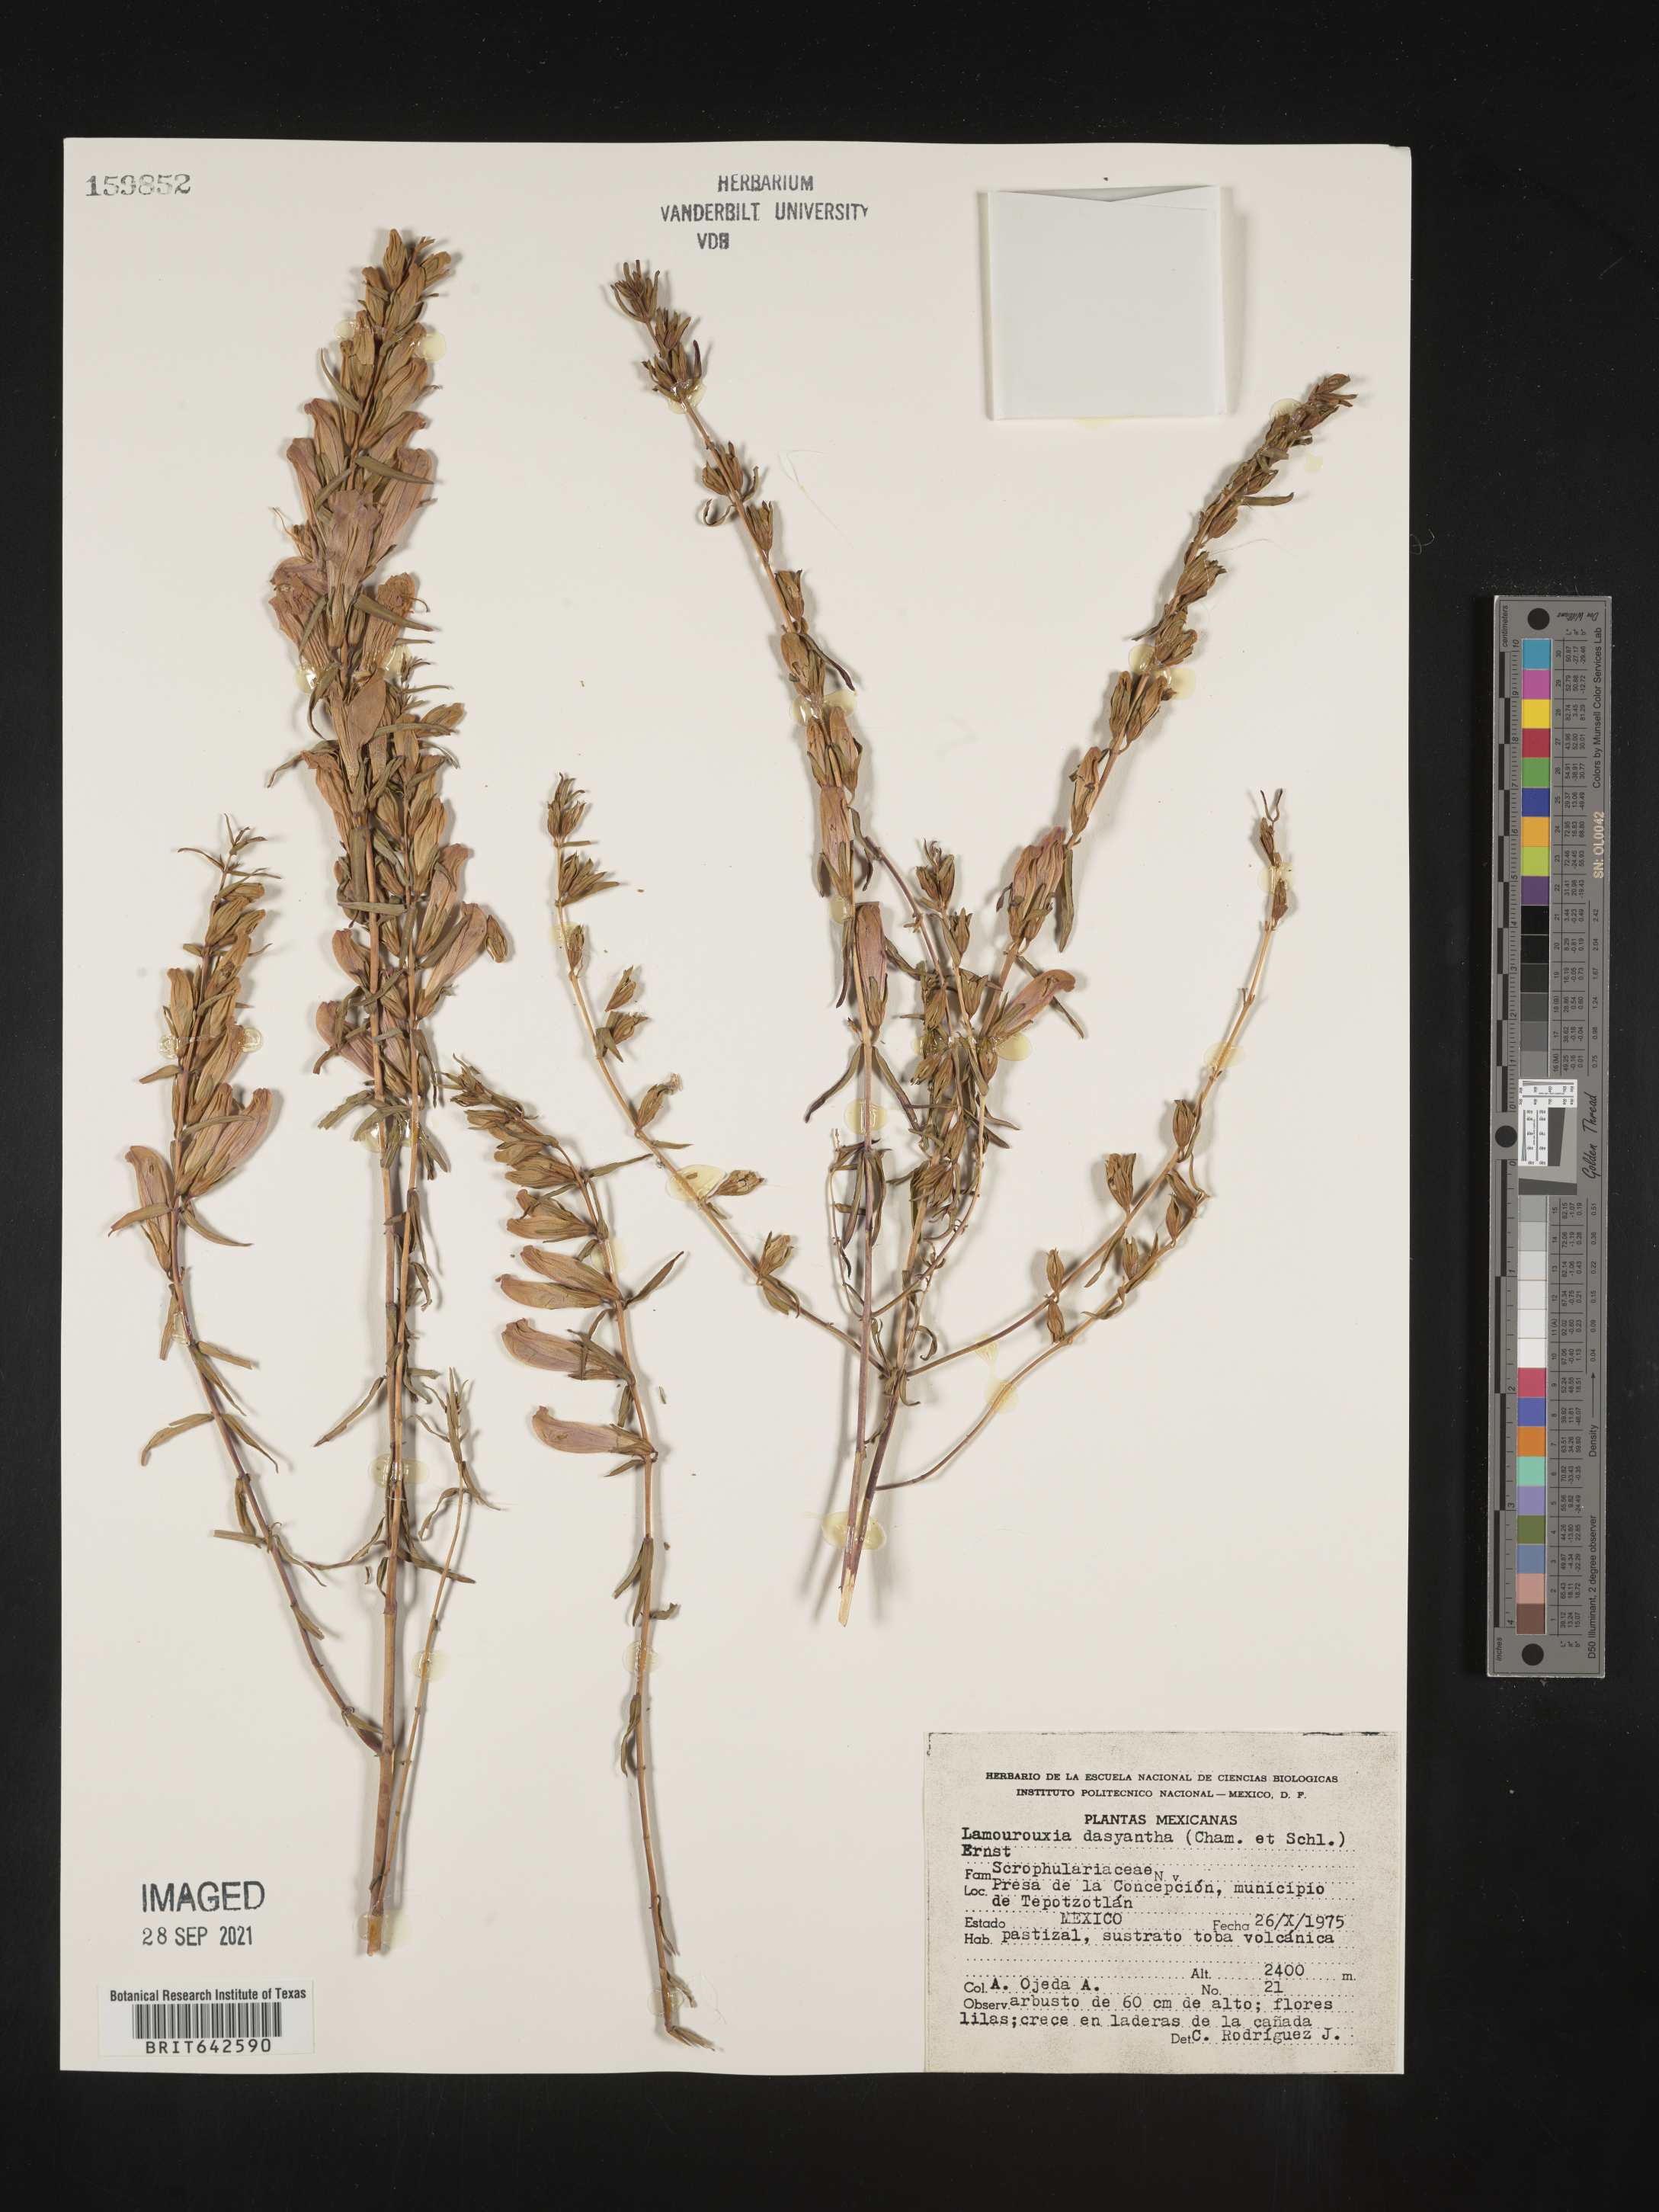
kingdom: Plantae
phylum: Tracheophyta
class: Magnoliopsida
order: Lamiales
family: Orobanchaceae
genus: Lamourouxia
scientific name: Lamourouxia
